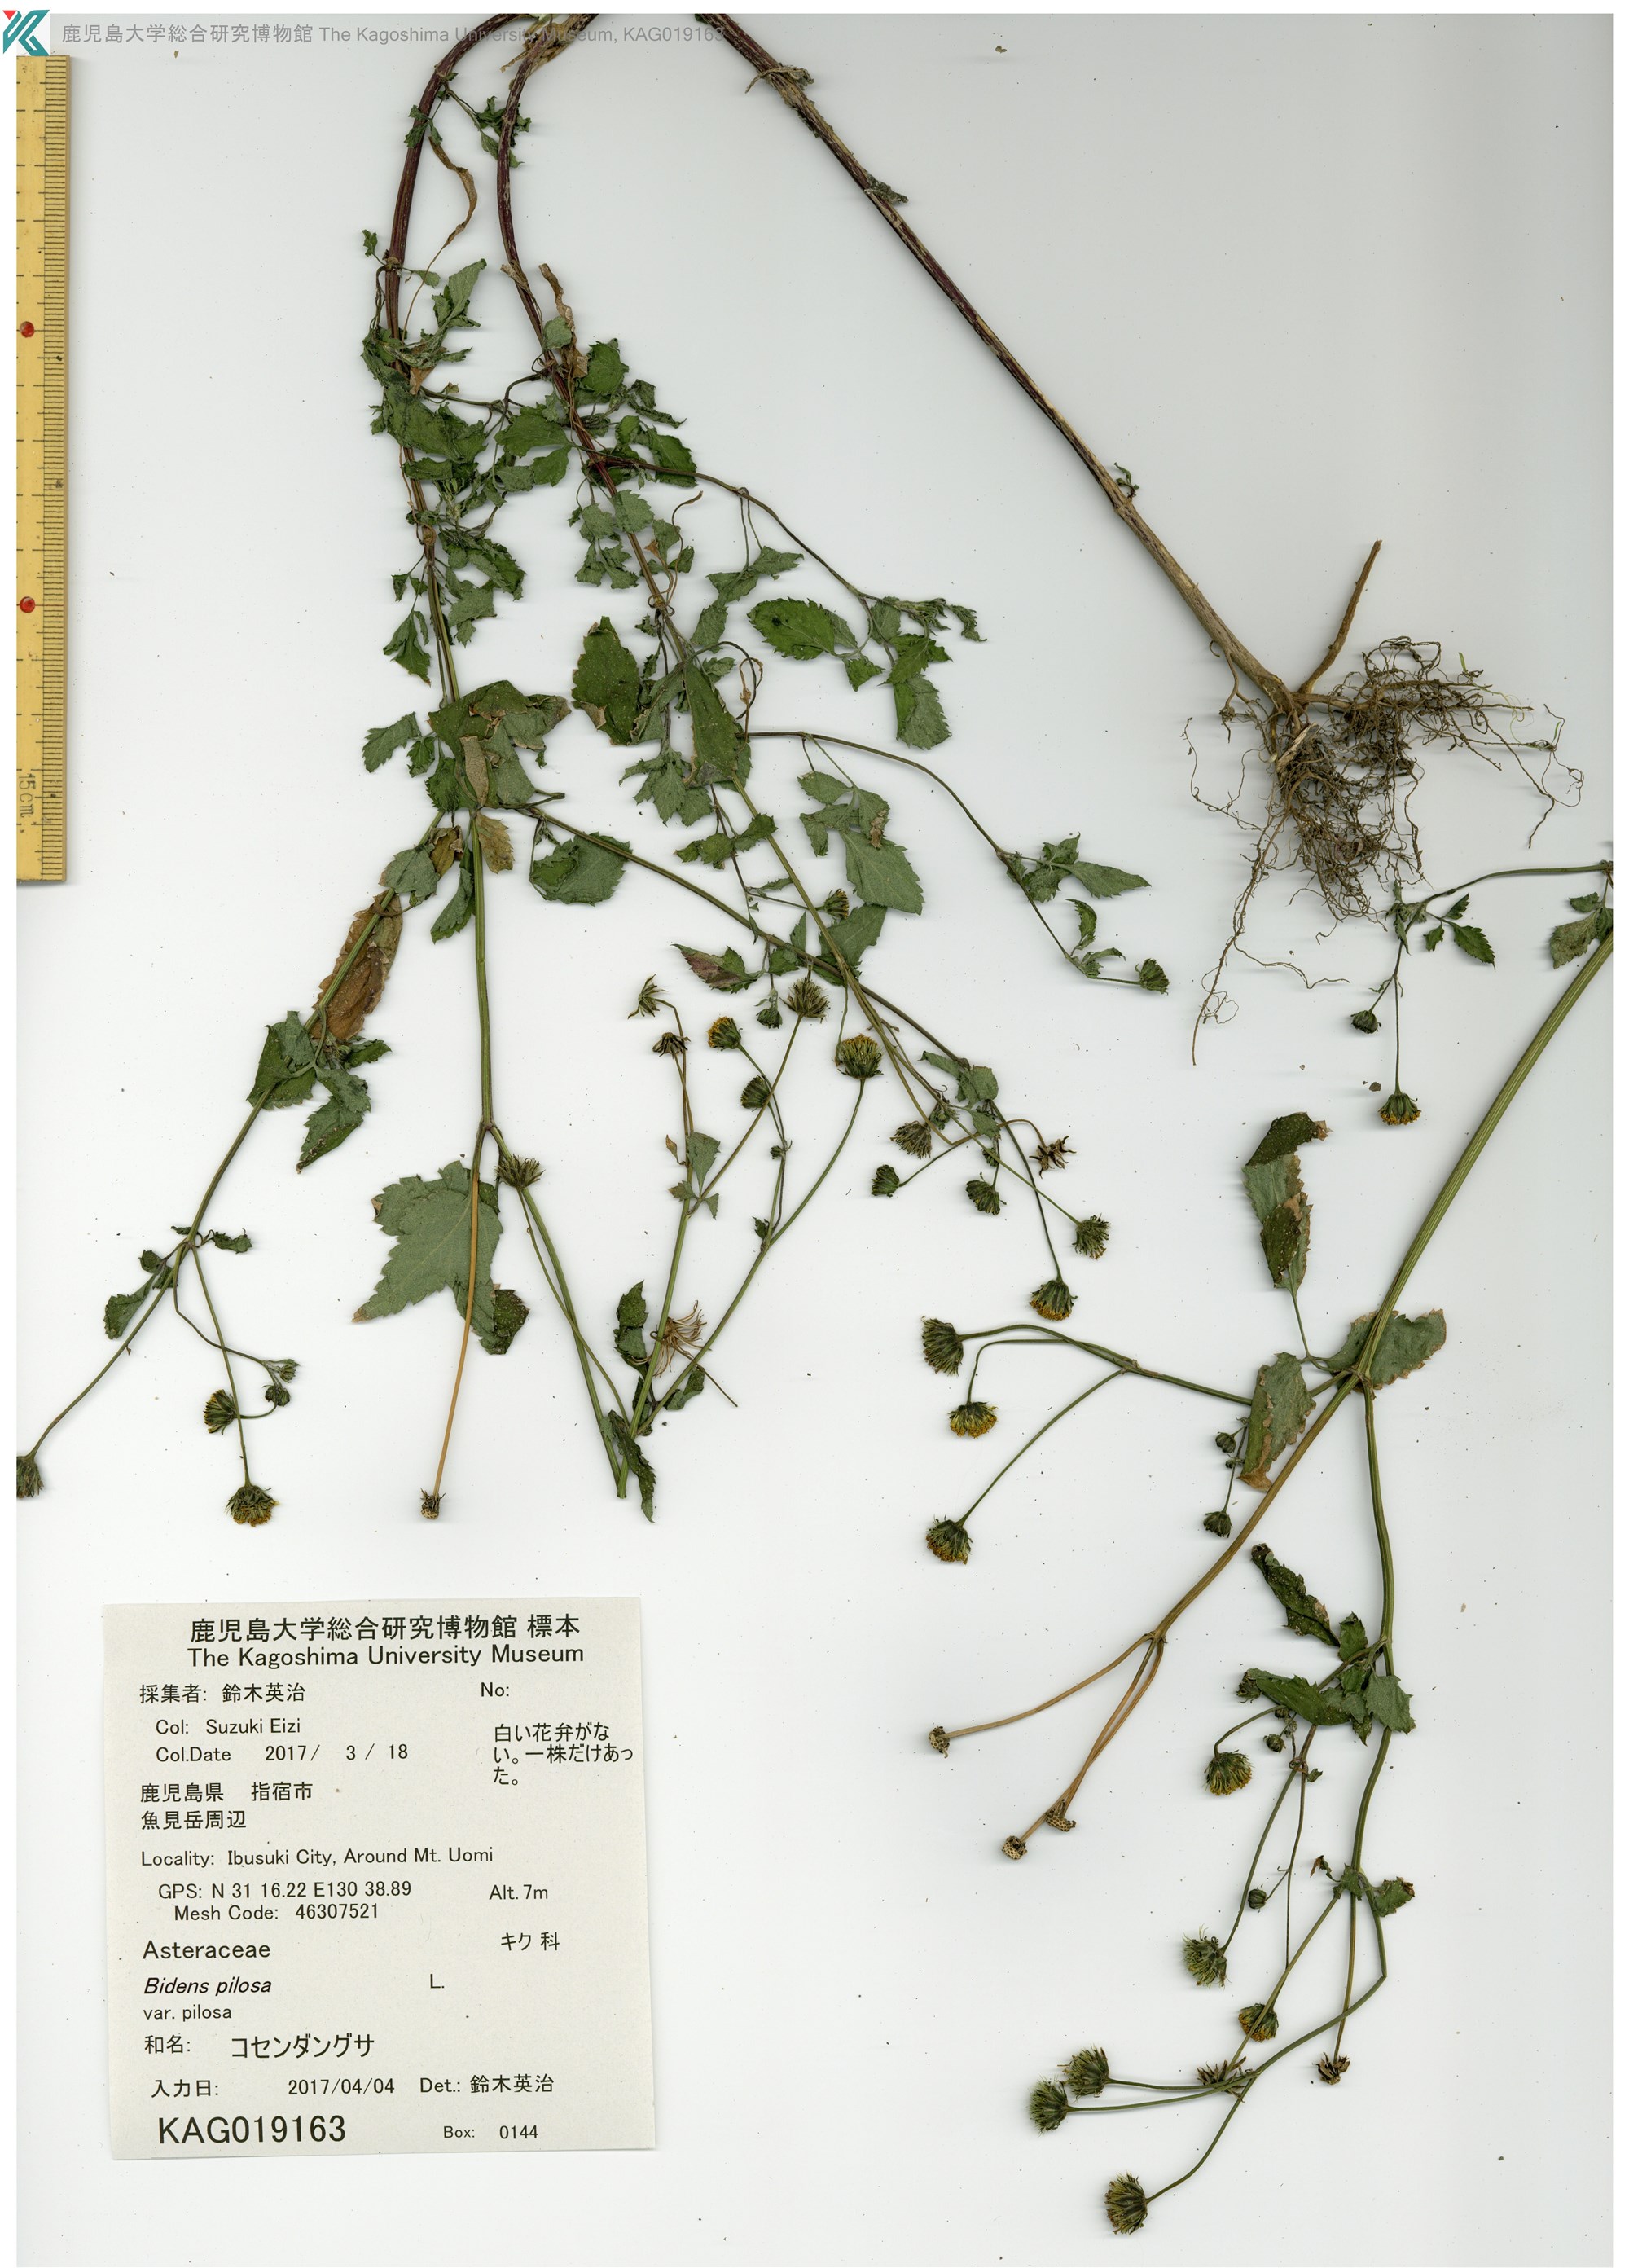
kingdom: Plantae
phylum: Tracheophyta
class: Magnoliopsida
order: Asterales
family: Asteraceae
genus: Bidens
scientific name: Bidens pilosa
